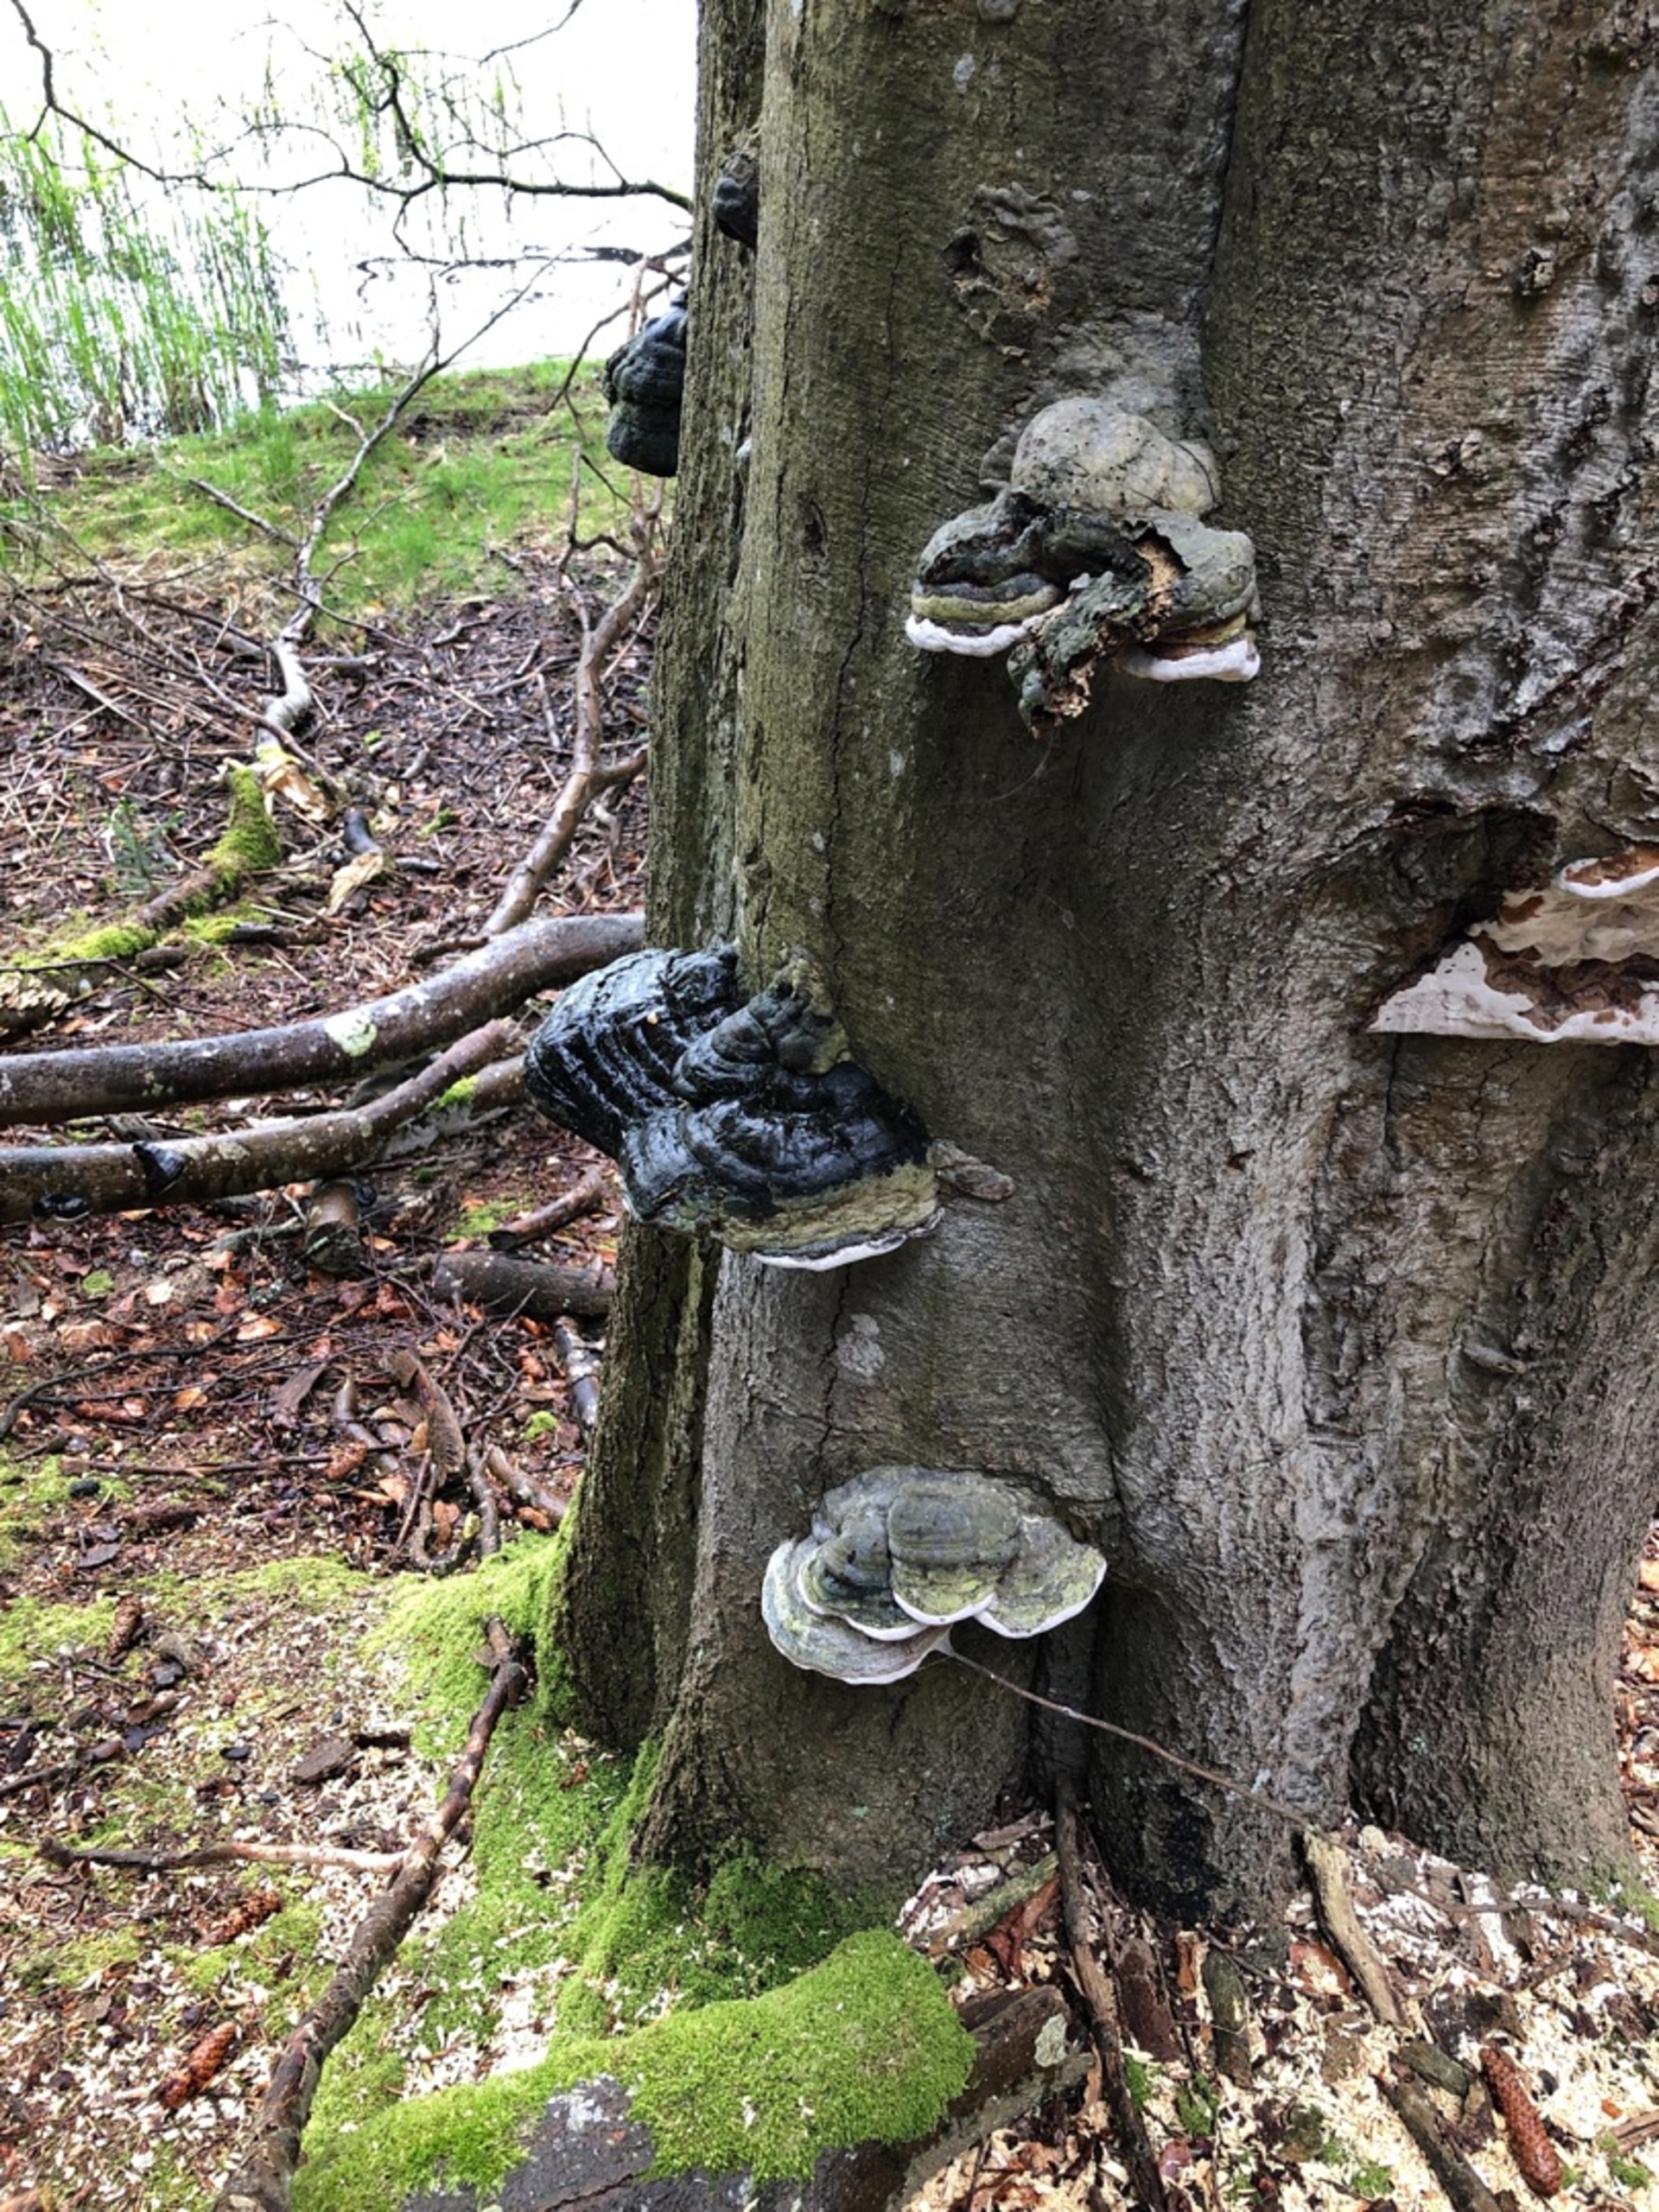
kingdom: Fungi
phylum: Basidiomycota
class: Agaricomycetes
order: Polyporales
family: Polyporaceae
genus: Fomes
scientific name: Fomes fomentarius
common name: Tøndersvamp
